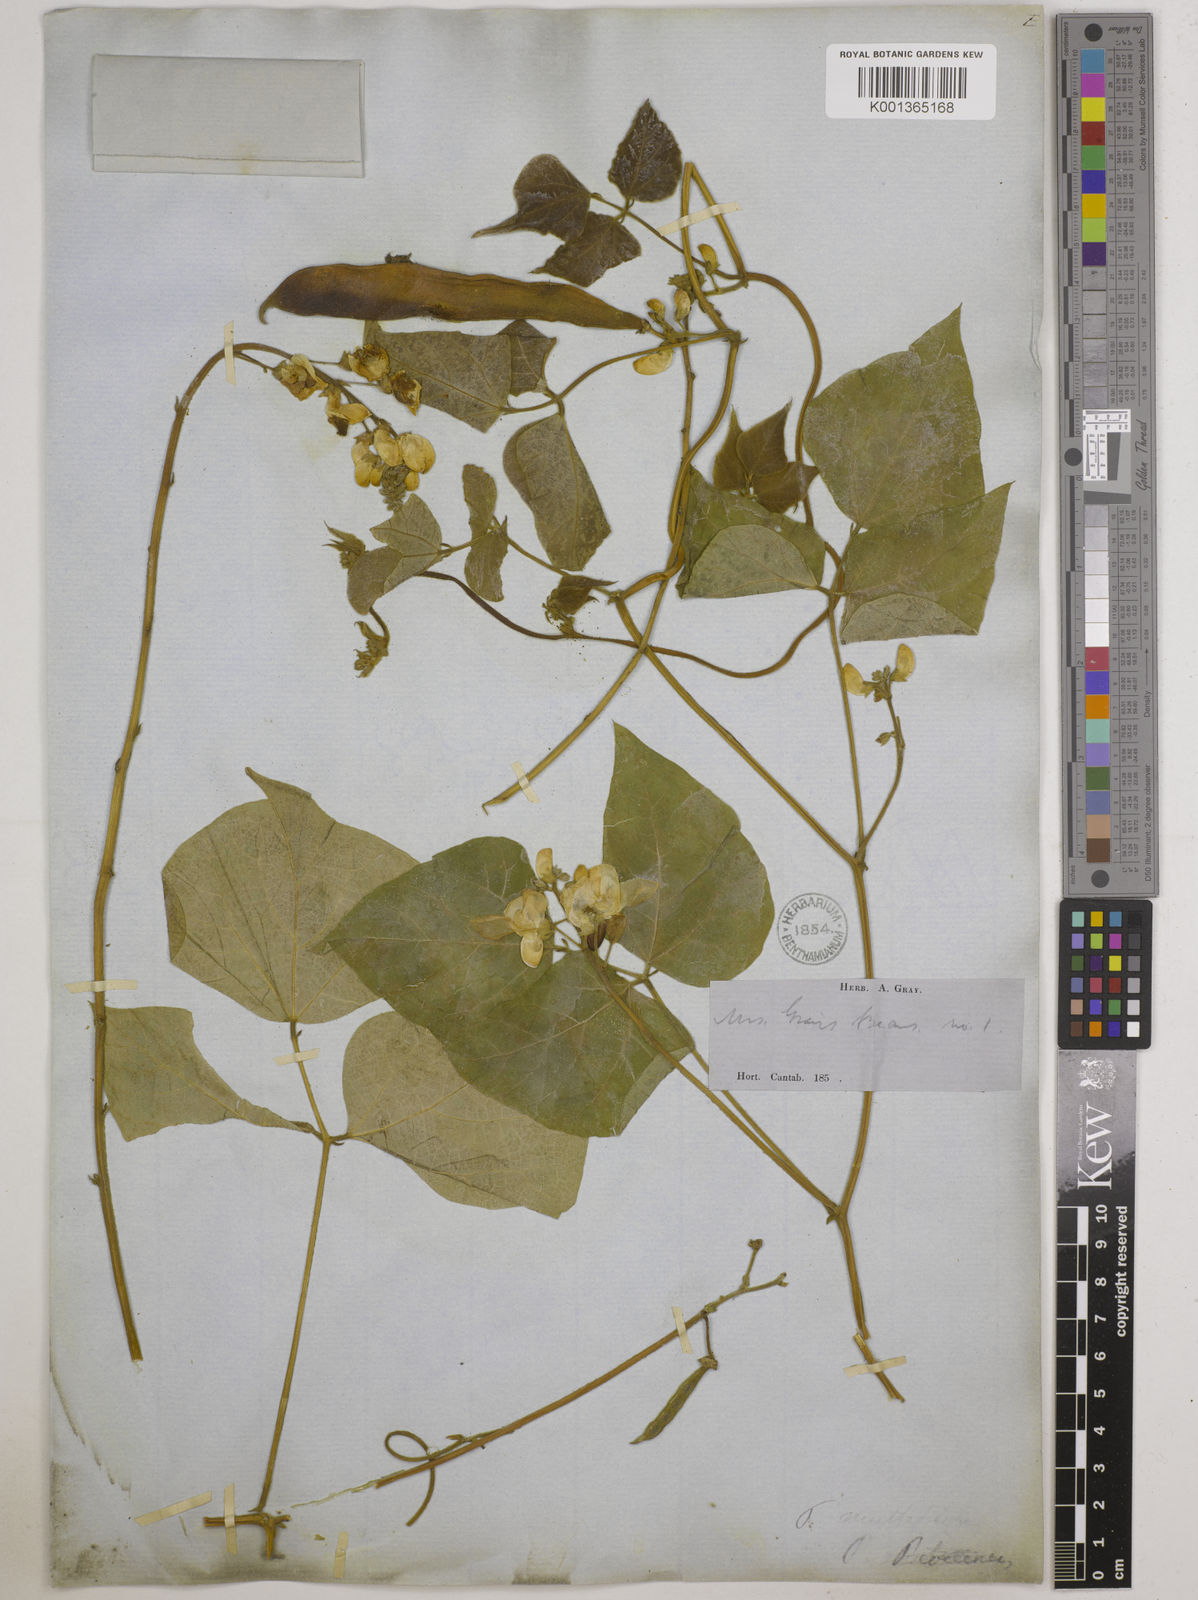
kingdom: Plantae
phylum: Tracheophyta
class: Magnoliopsida
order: Fabales
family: Fabaceae
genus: Phaseolus
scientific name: Phaseolus vulgaris
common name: Bean
